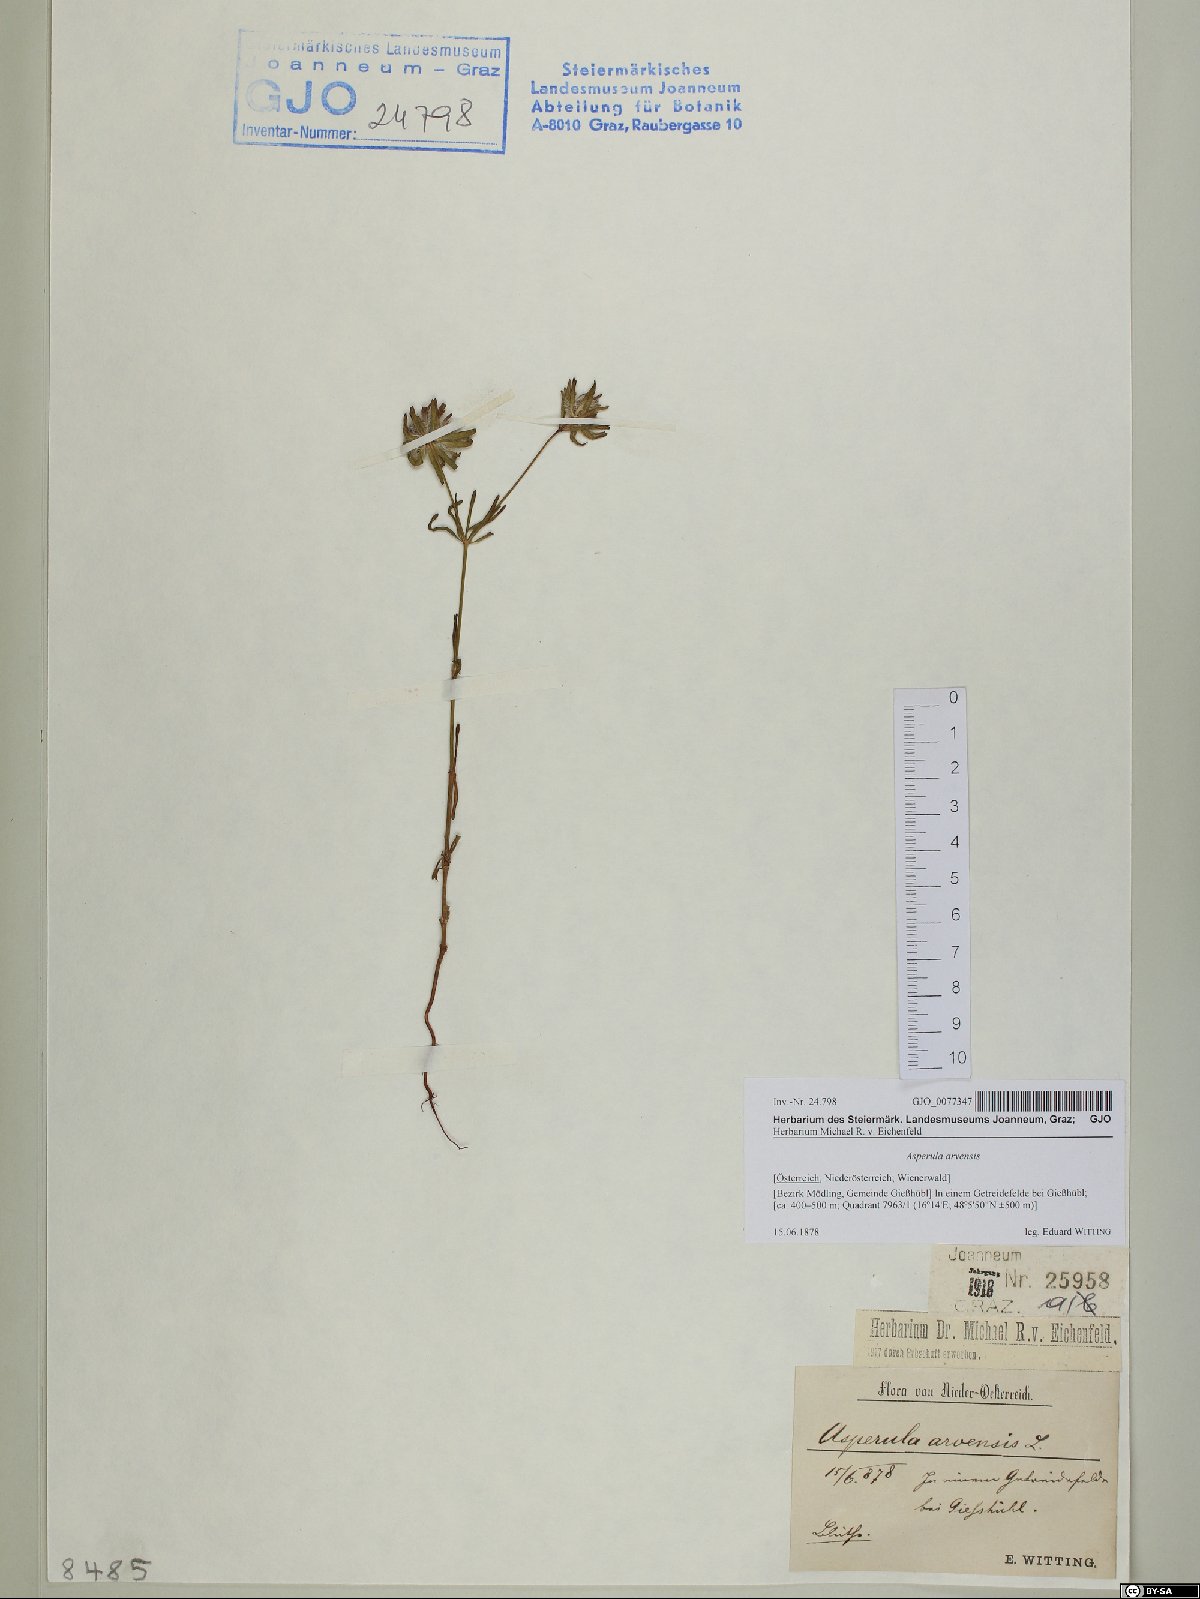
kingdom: Plantae
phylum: Tracheophyta
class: Magnoliopsida
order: Gentianales
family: Rubiaceae
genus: Asperula
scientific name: Asperula arvensis
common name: Blue woodruff
